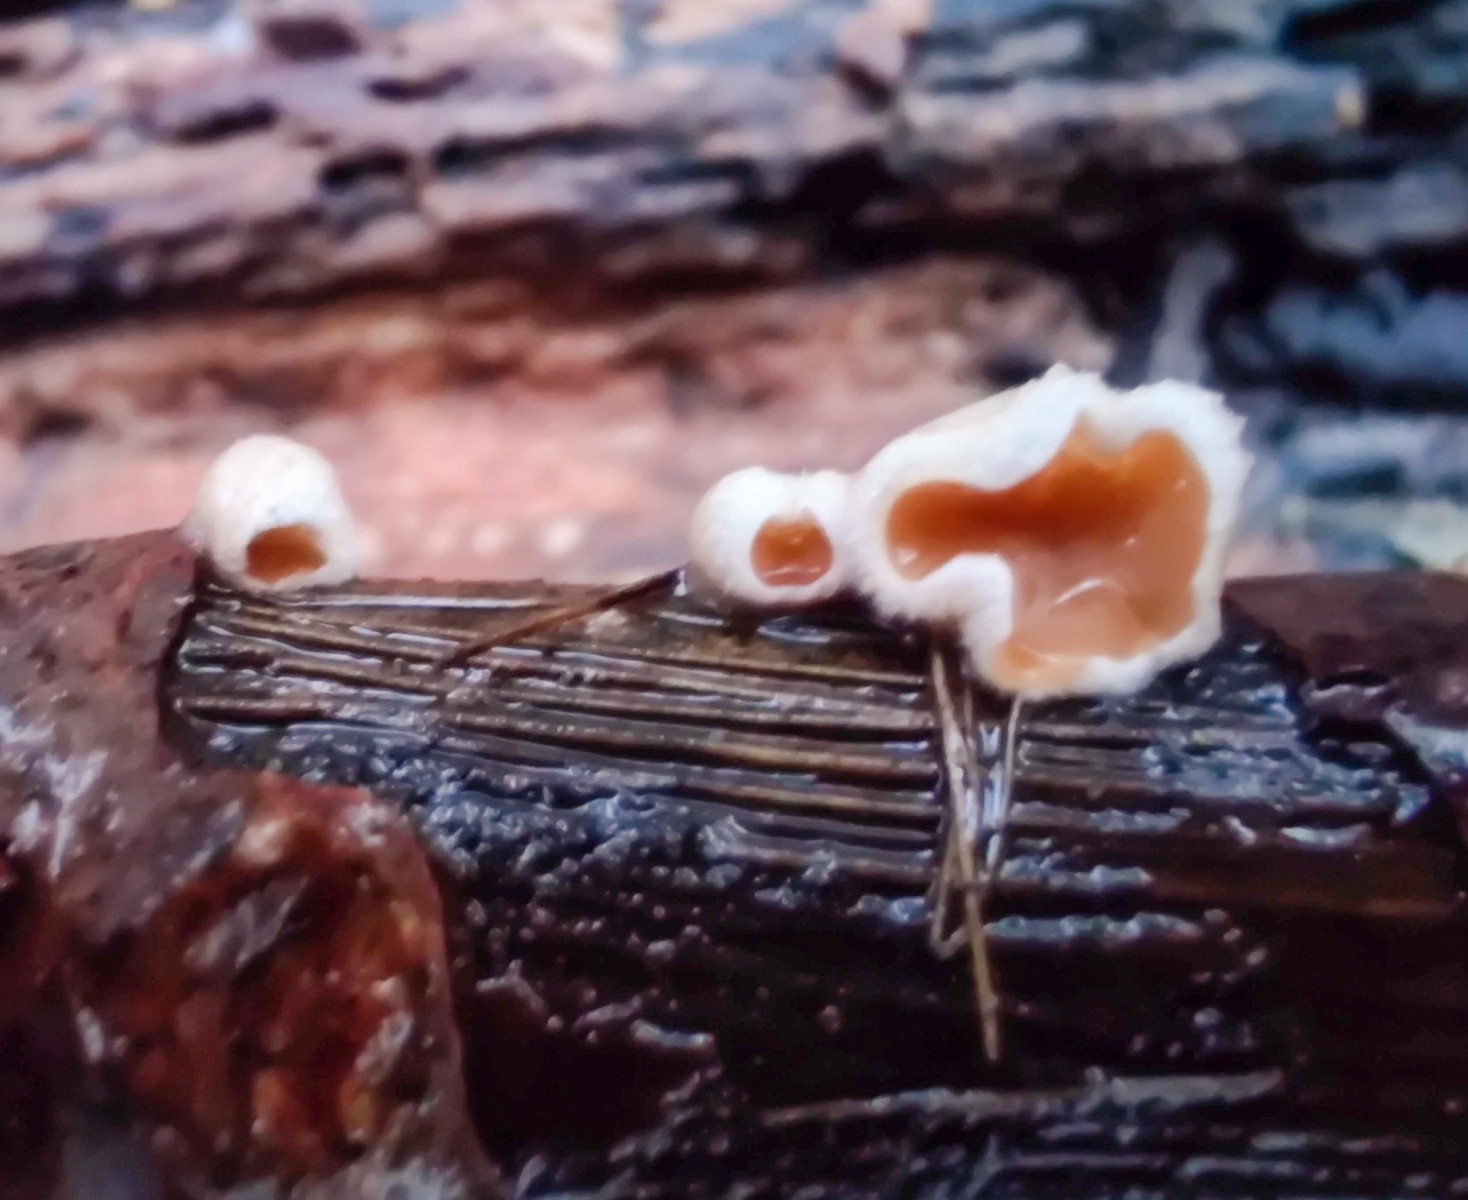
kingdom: Fungi
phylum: Basidiomycota
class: Agaricomycetes
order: Agaricales
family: Schizophyllaceae
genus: Schizophyllum
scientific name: Schizophyllum amplum
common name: poppel-hængeøre
